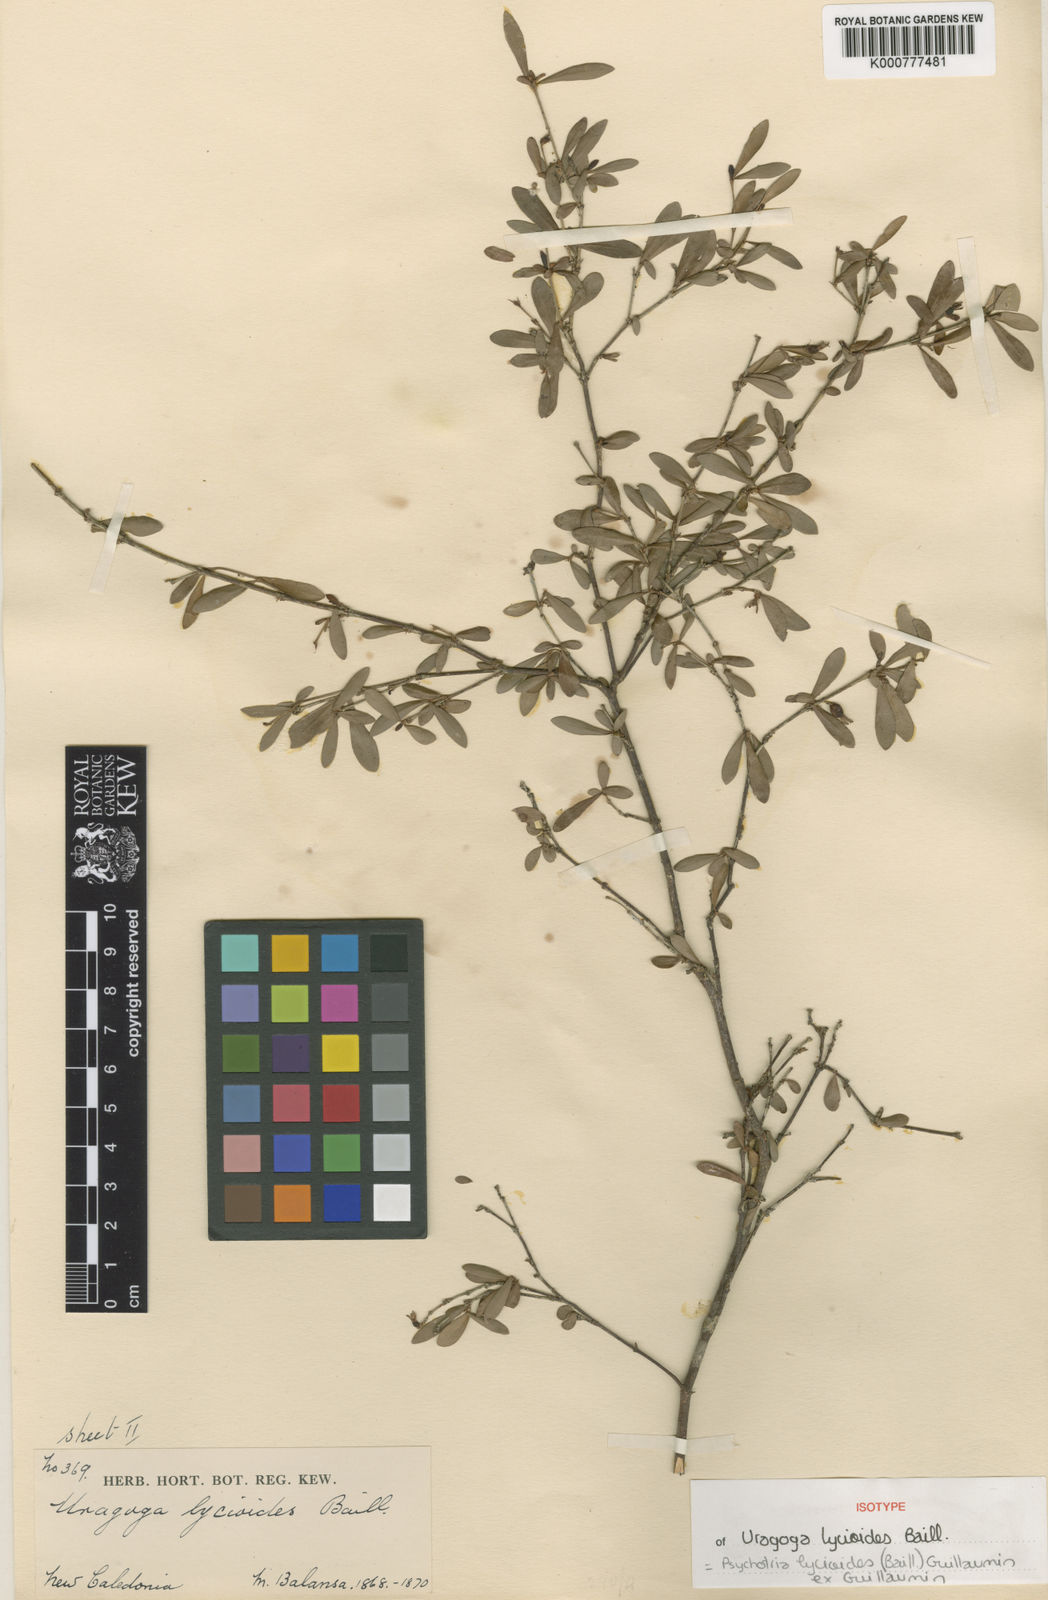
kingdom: Plantae
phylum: Tracheophyta
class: Magnoliopsida
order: Gentianales
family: Rubiaceae
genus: Psychotria
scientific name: Psychotria lycioides
